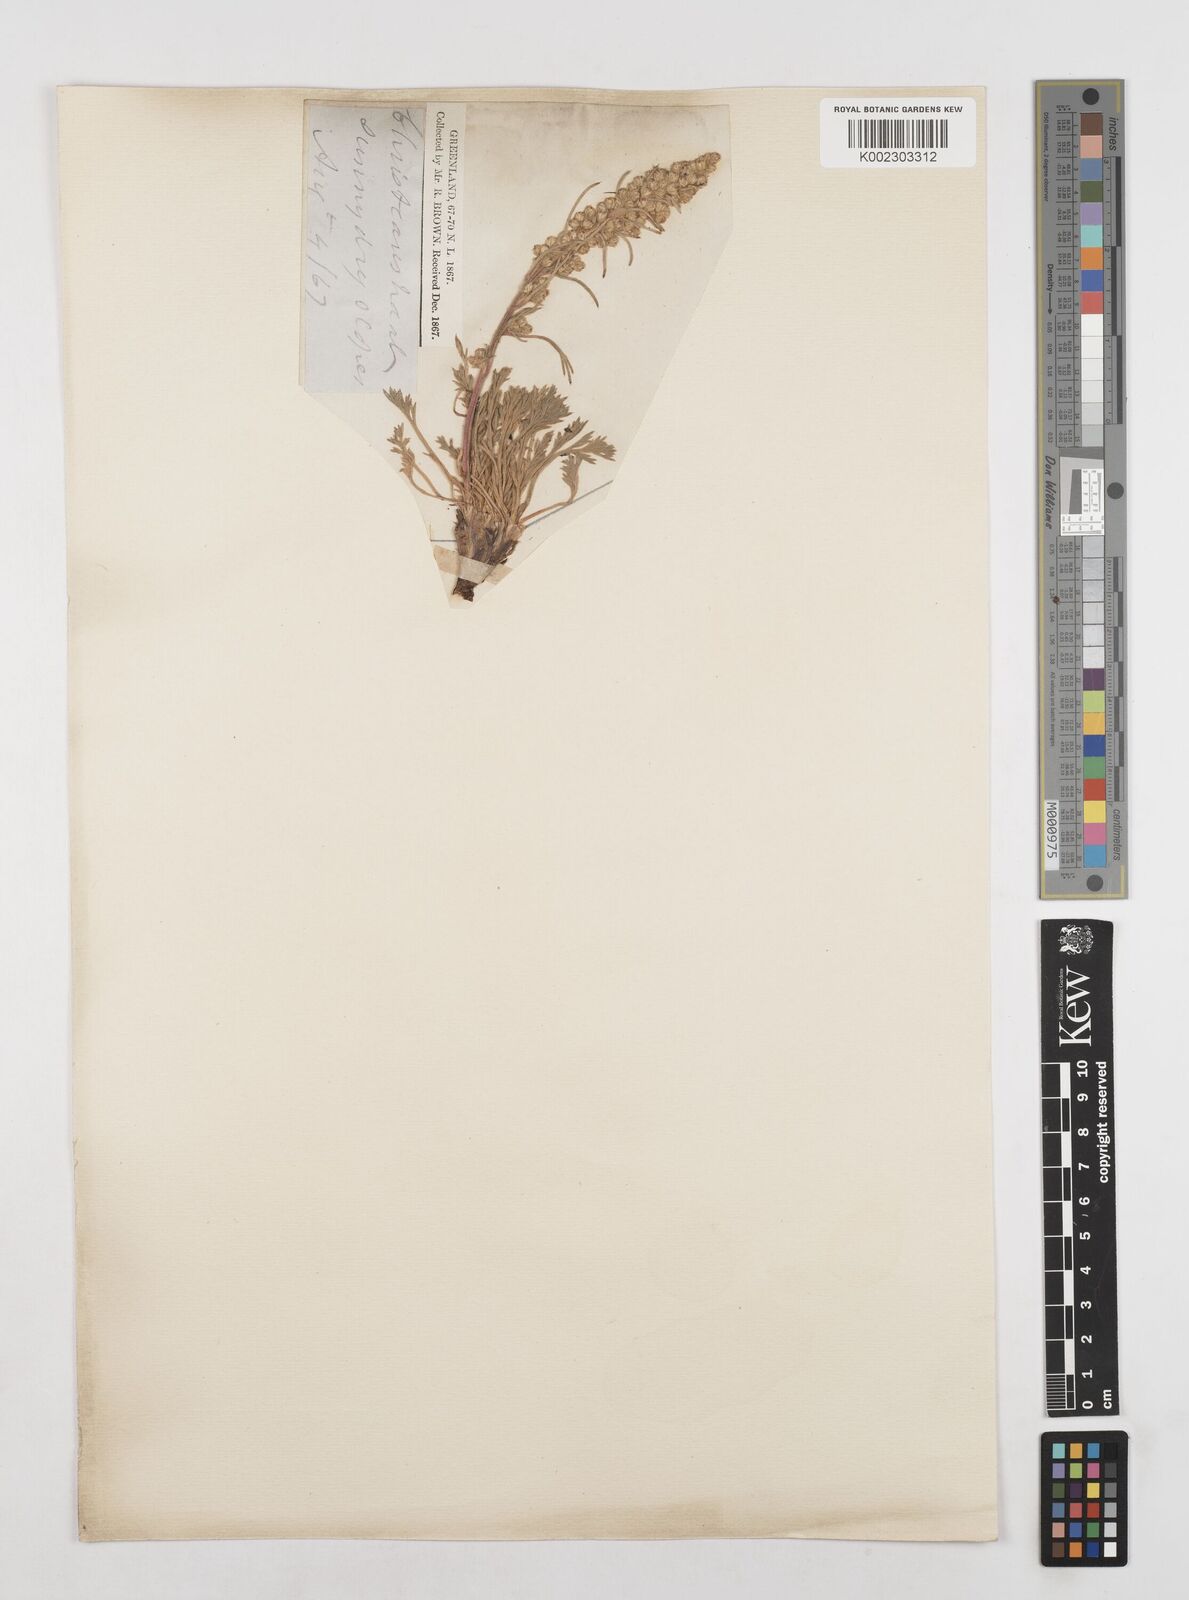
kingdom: Plantae
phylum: Tracheophyta
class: Magnoliopsida
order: Asterales
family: Asteraceae
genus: Artemisia
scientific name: Artemisia borealis
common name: Boreal sage
